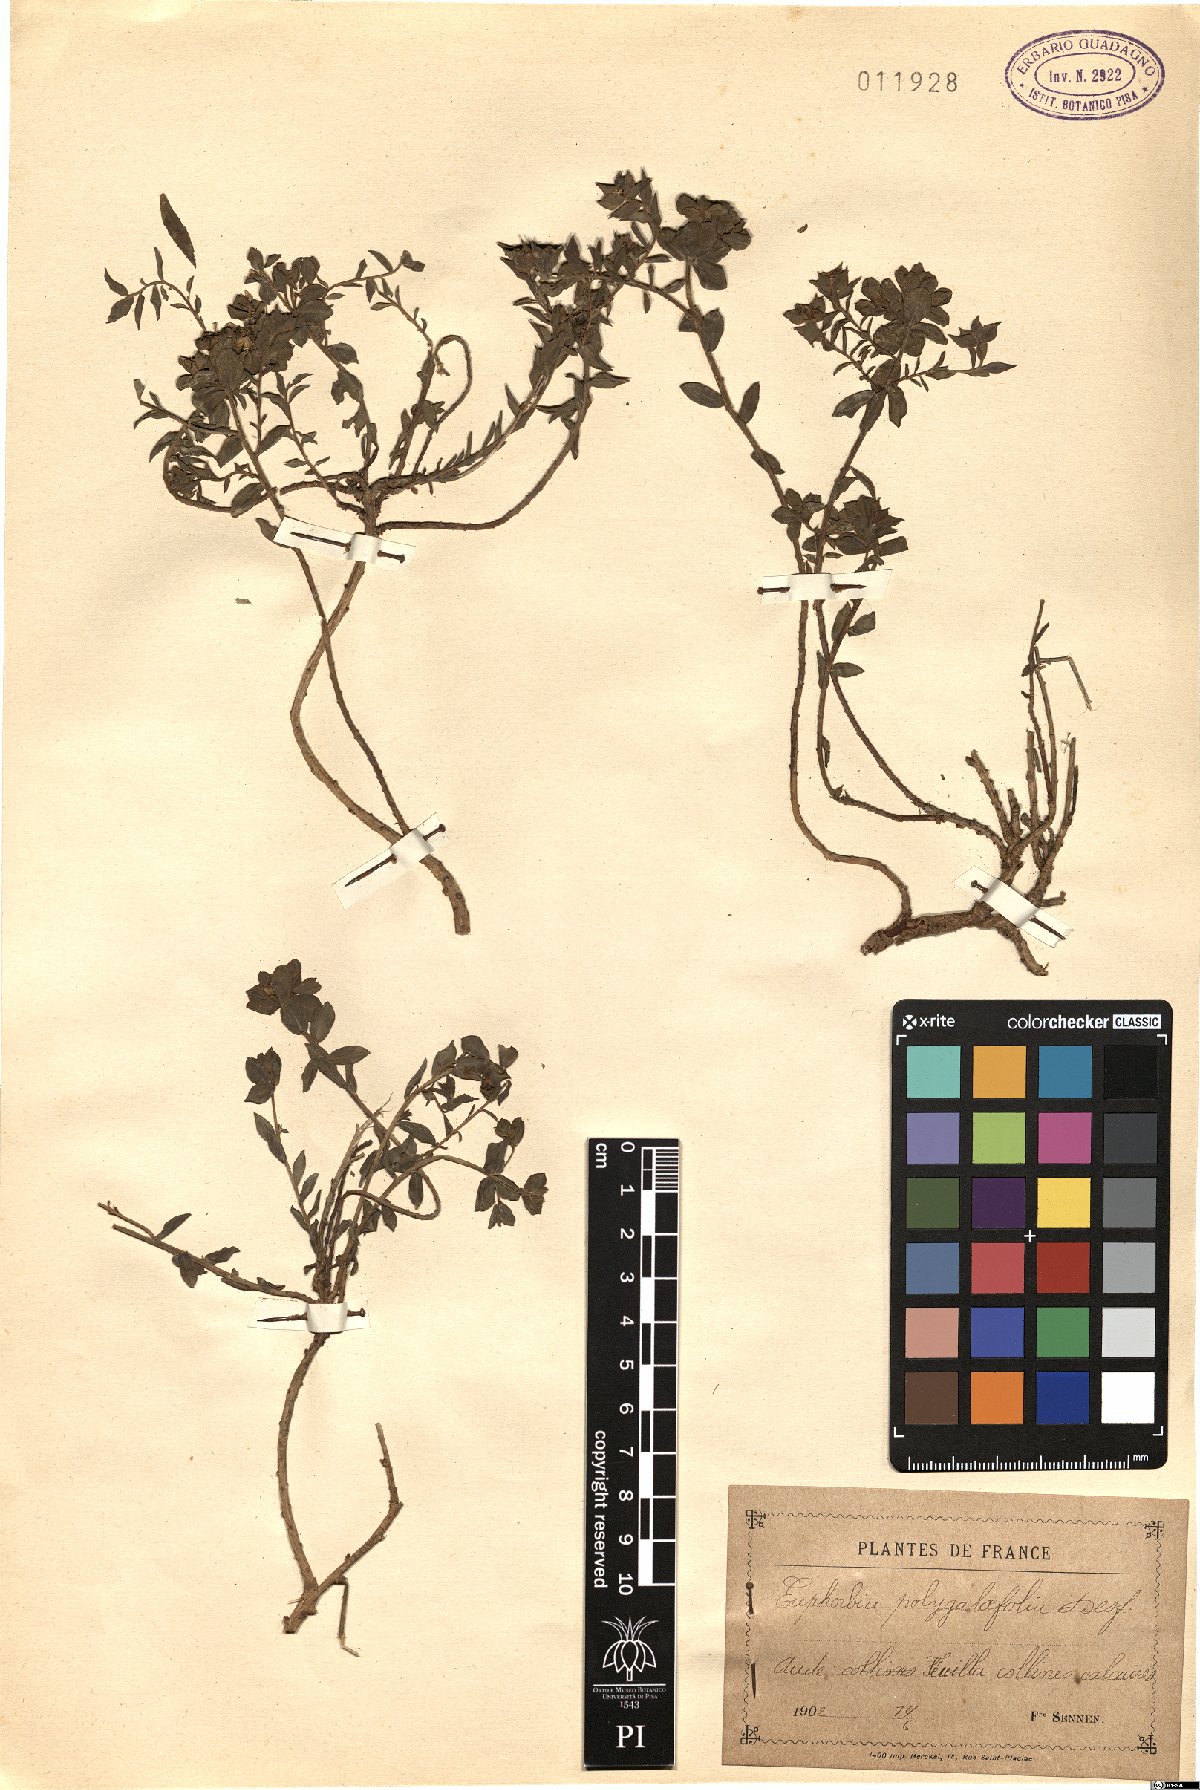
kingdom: Plantae
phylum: Tracheophyta
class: Magnoliopsida
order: Malpighiales
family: Euphorbiaceae
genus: Euphorbia
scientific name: Euphorbia polygalifolia
